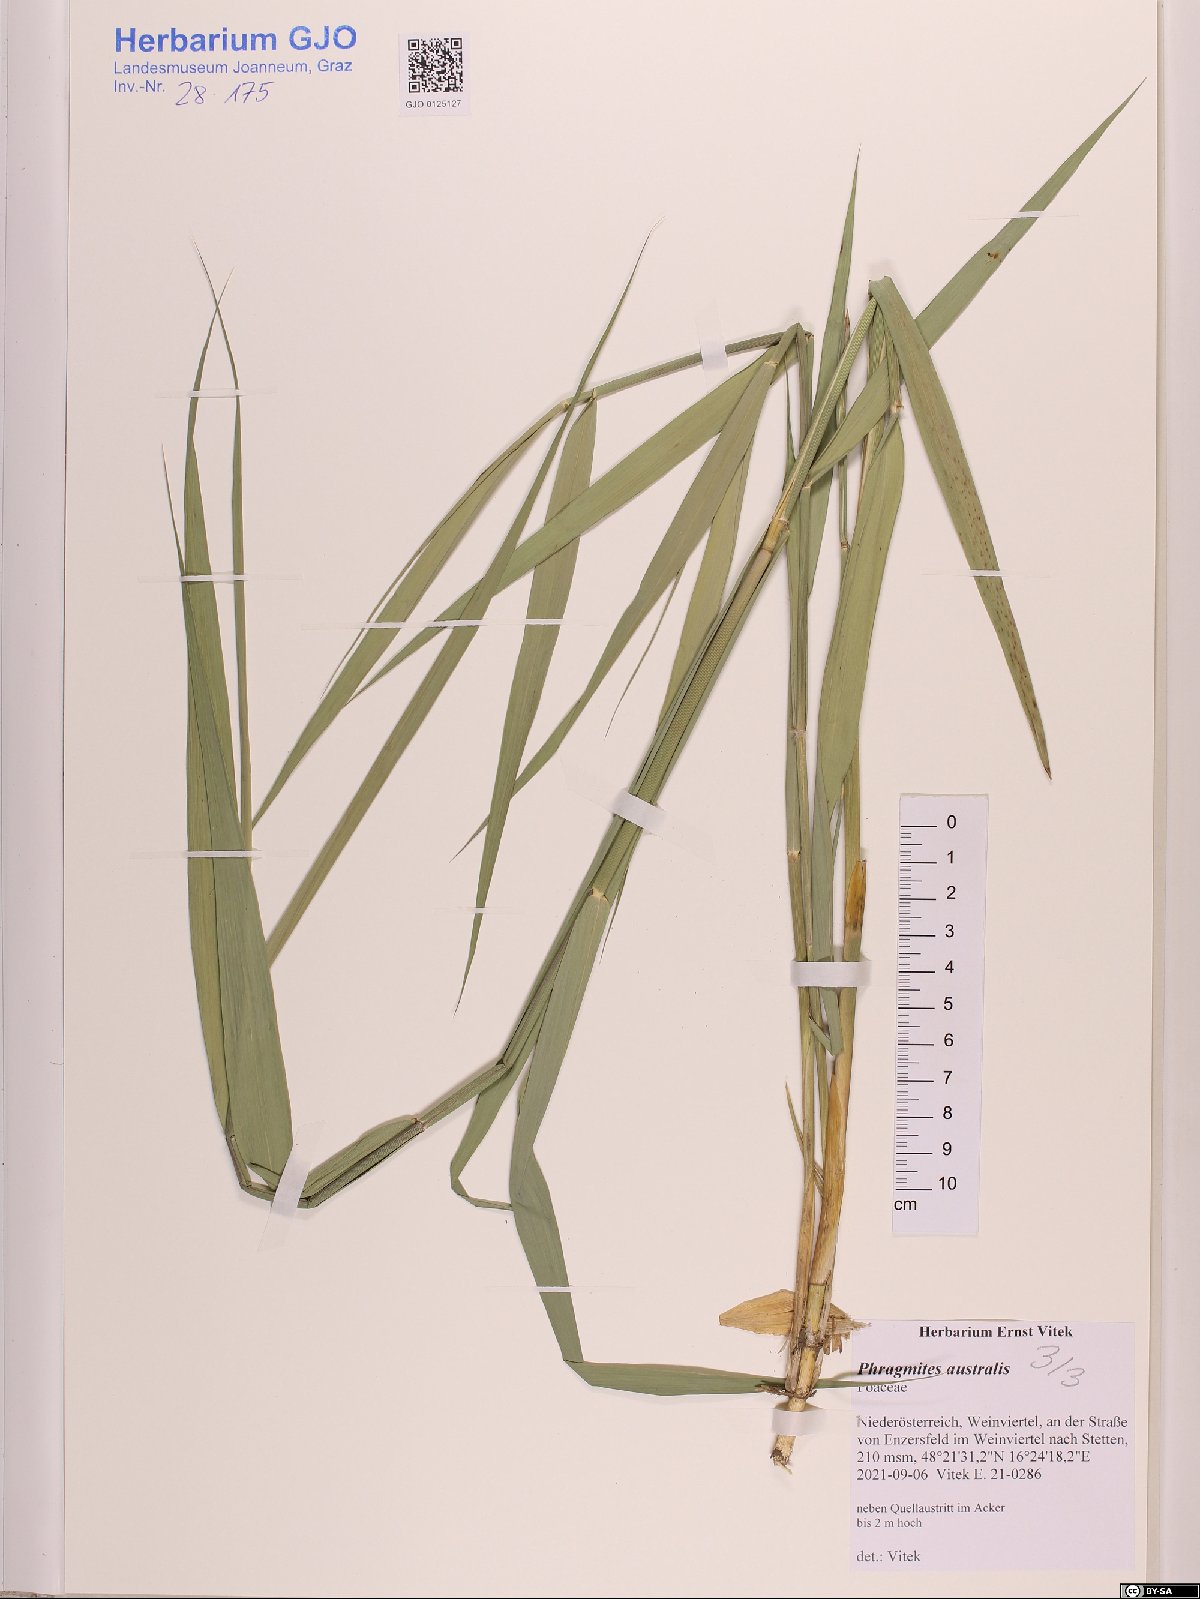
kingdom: Plantae
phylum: Tracheophyta
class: Liliopsida
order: Poales
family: Poaceae
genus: Phragmites
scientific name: Phragmites australis
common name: Common reed
